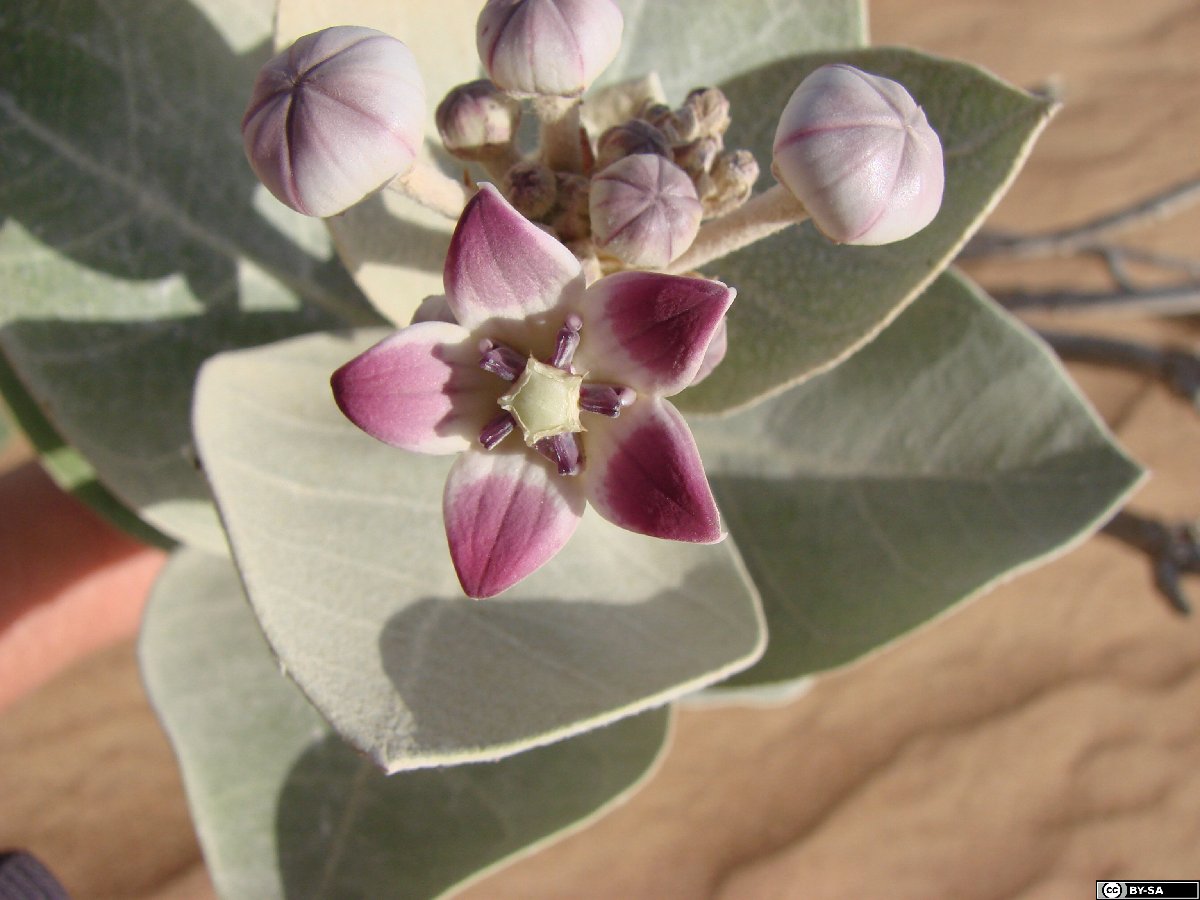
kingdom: Plantae
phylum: Tracheophyta
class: Magnoliopsida
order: Gentianales
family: Apocynaceae
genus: Calotropis
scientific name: Calotropis procera
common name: Roostertree
